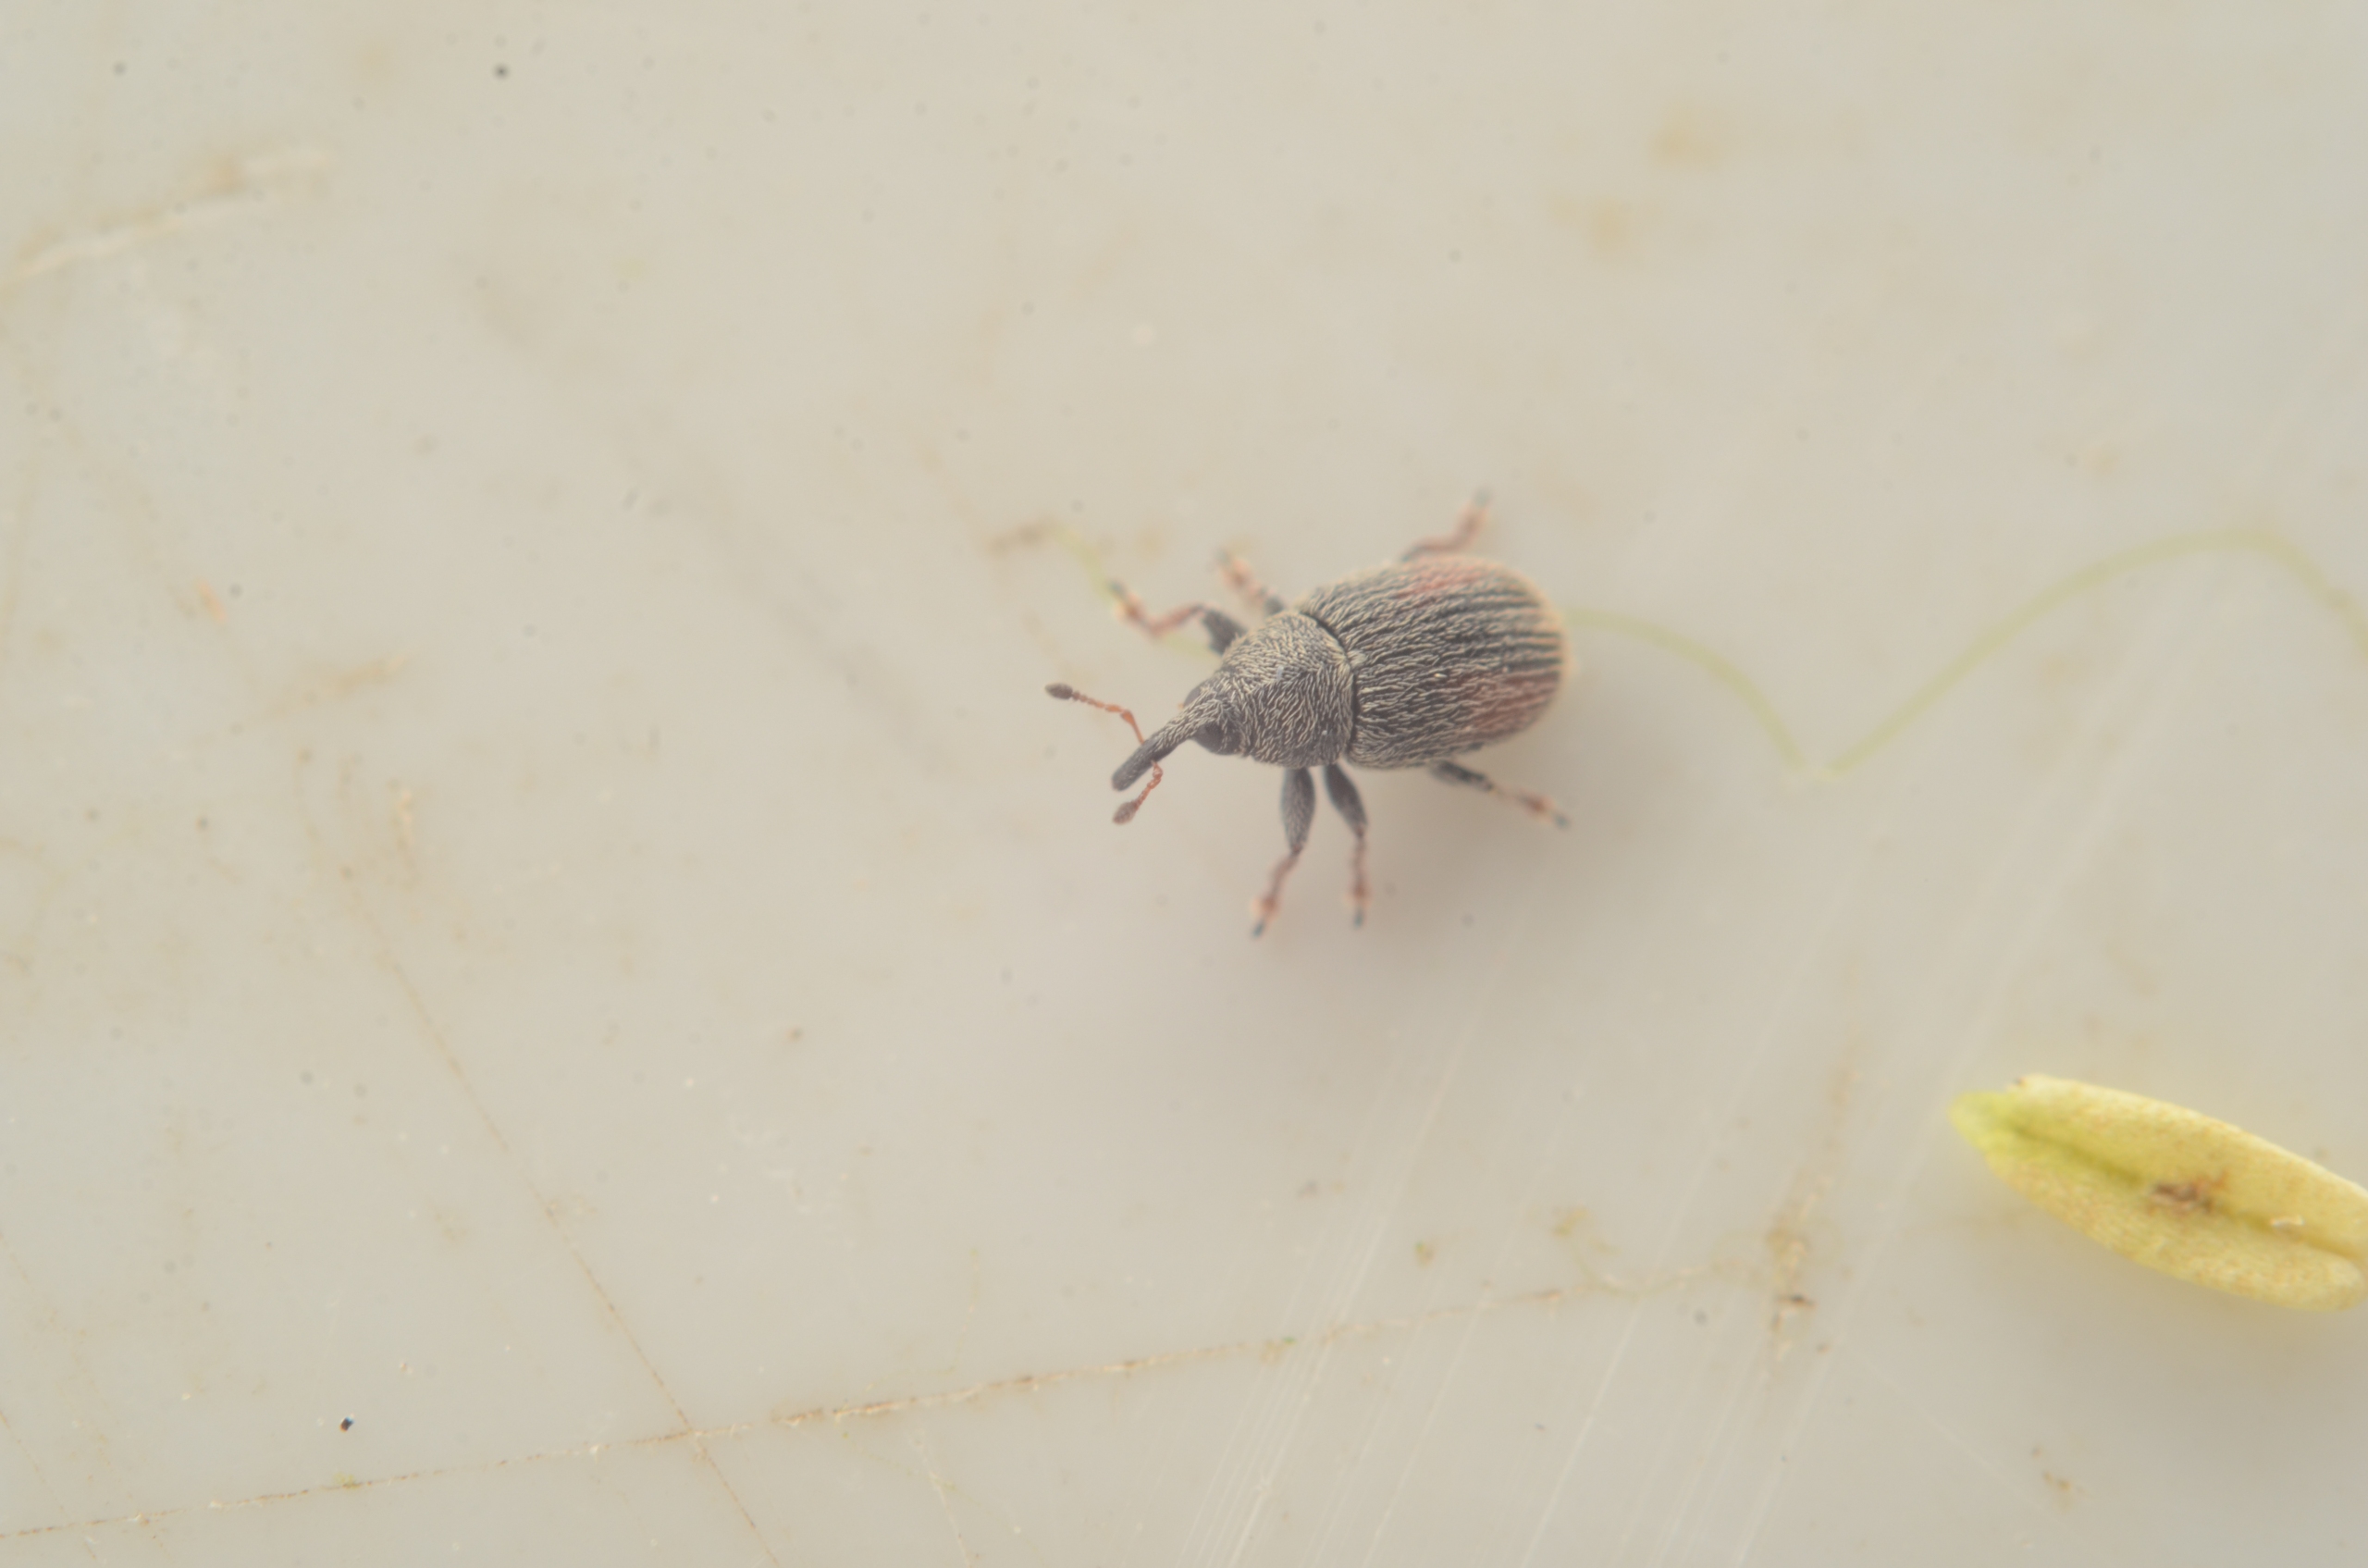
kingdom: Animalia
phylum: Arthropoda
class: Insecta
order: Coleoptera
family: Curculionidae
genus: Mecinus
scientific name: Mecinus pascuorum
